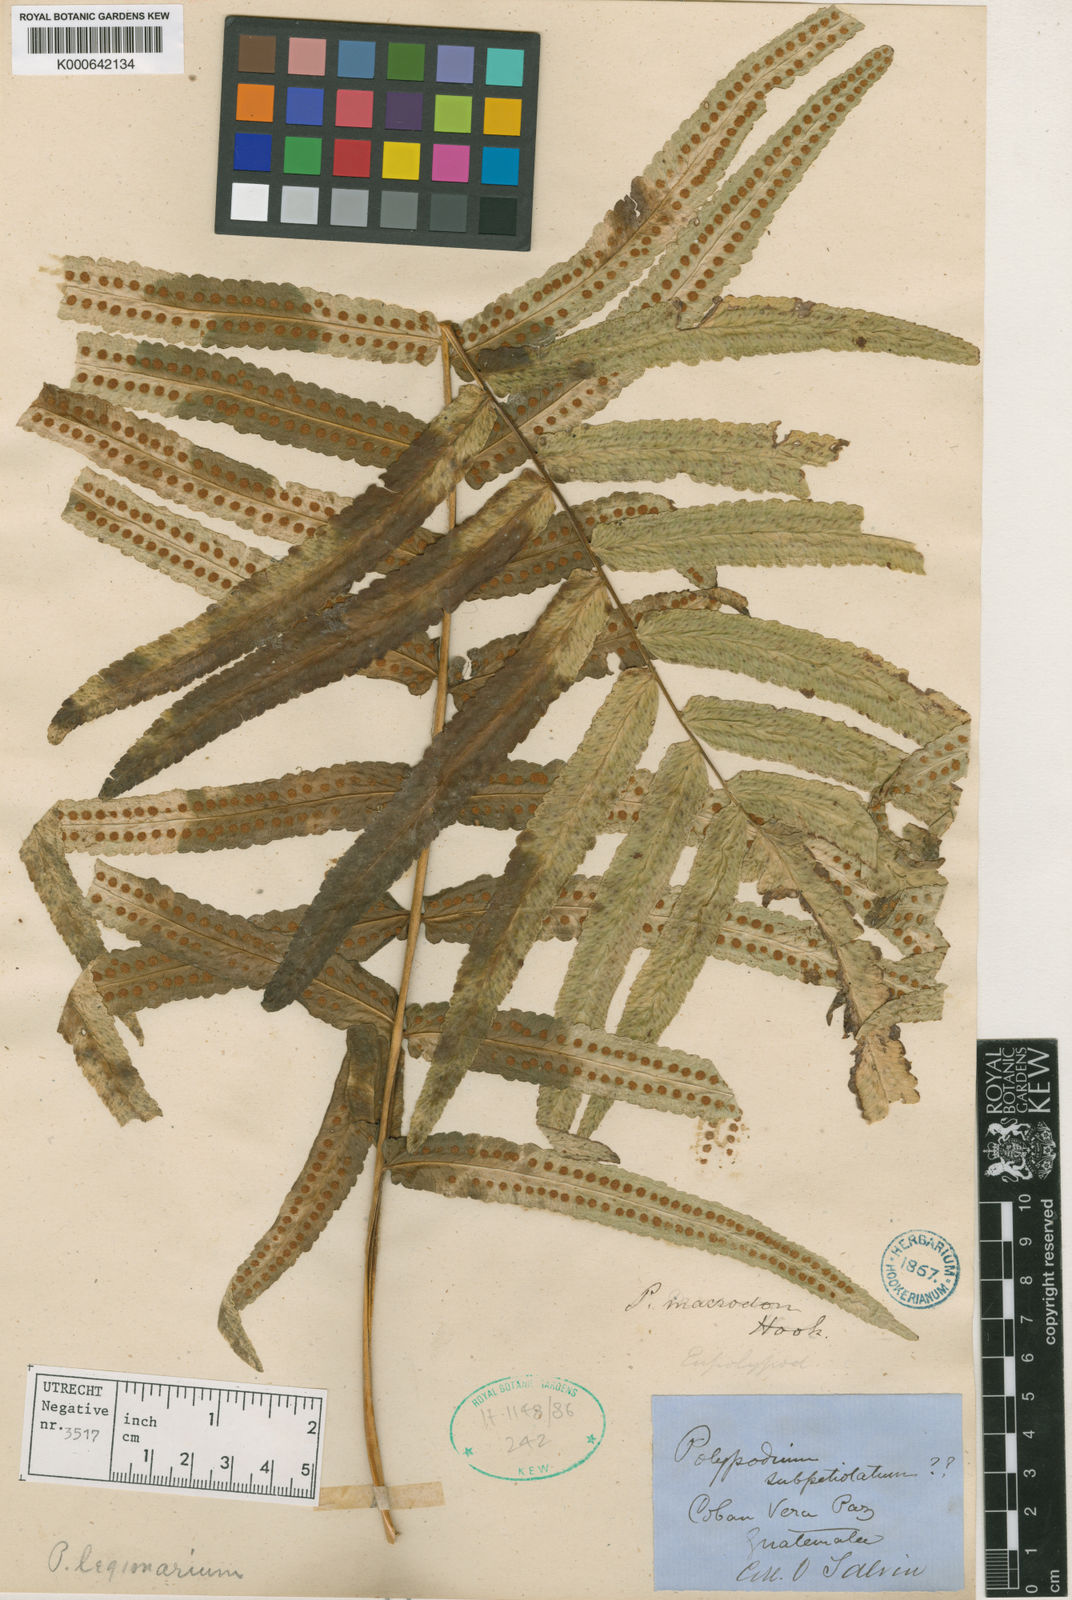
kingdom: Plantae
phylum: Tracheophyta
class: Polypodiopsida
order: Polypodiales
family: Polypodiaceae
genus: Polypodium
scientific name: Polypodium echinolepis
